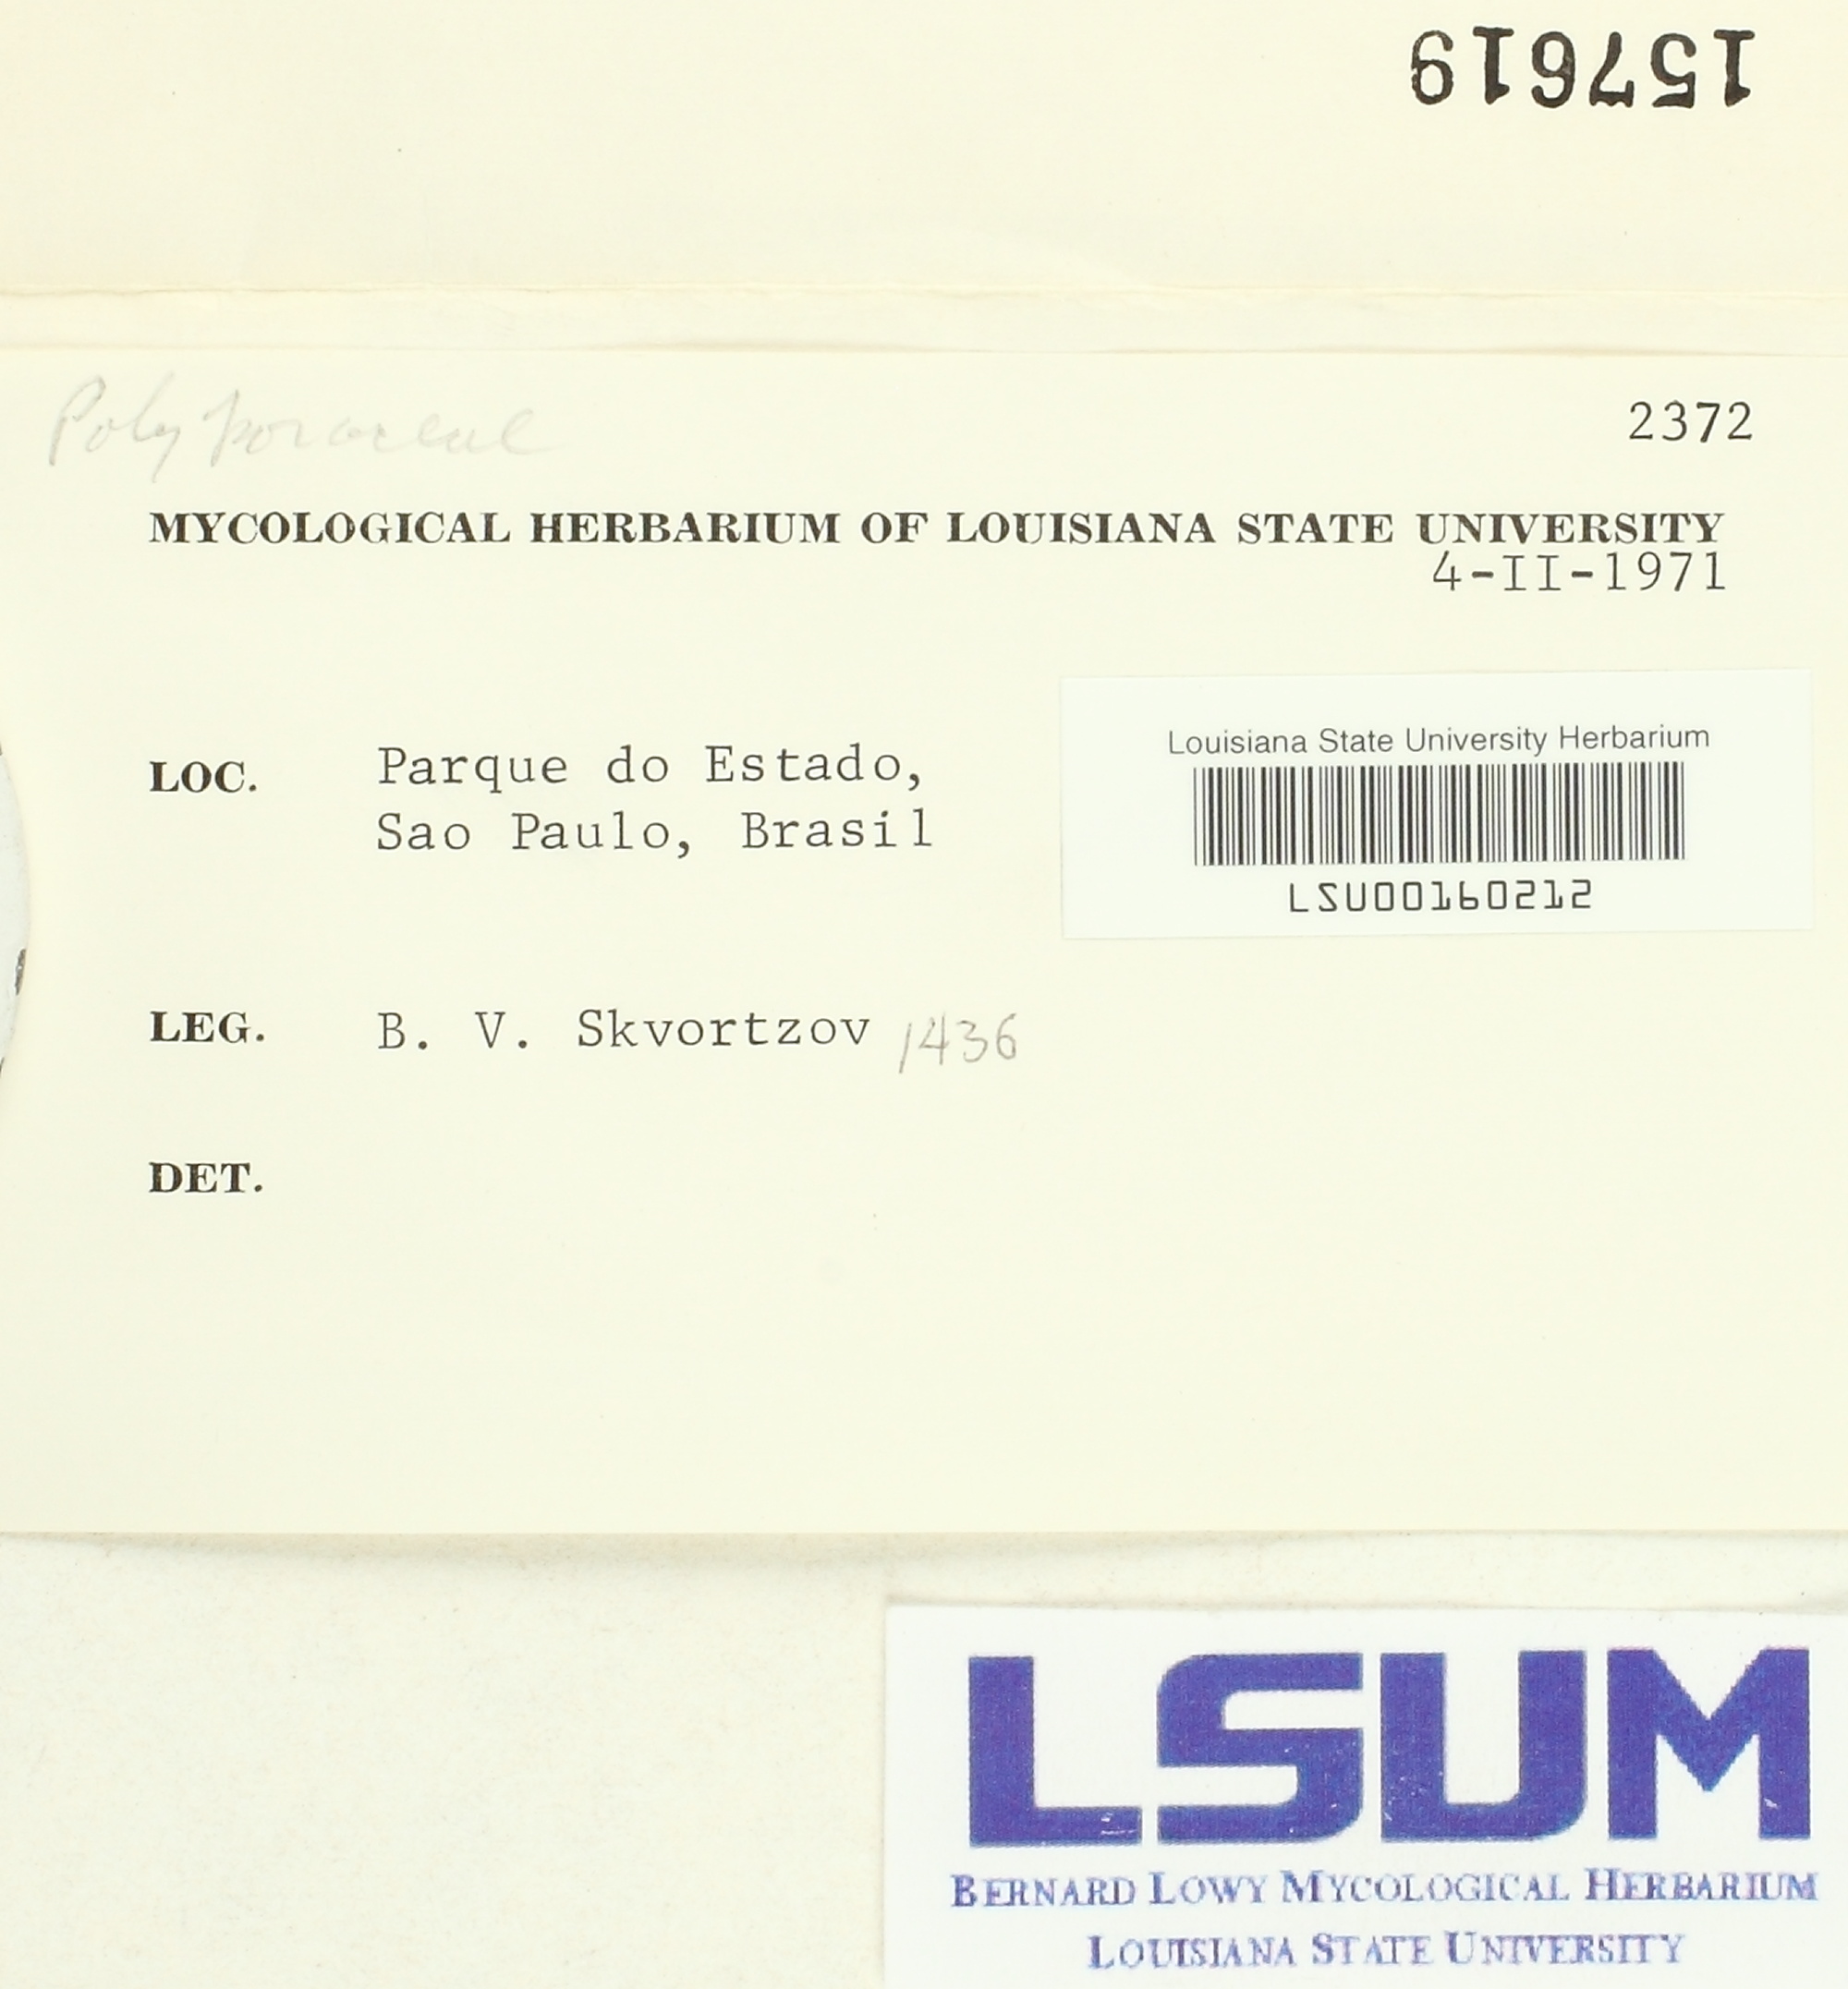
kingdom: Fungi
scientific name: Fungi
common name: Fungi
